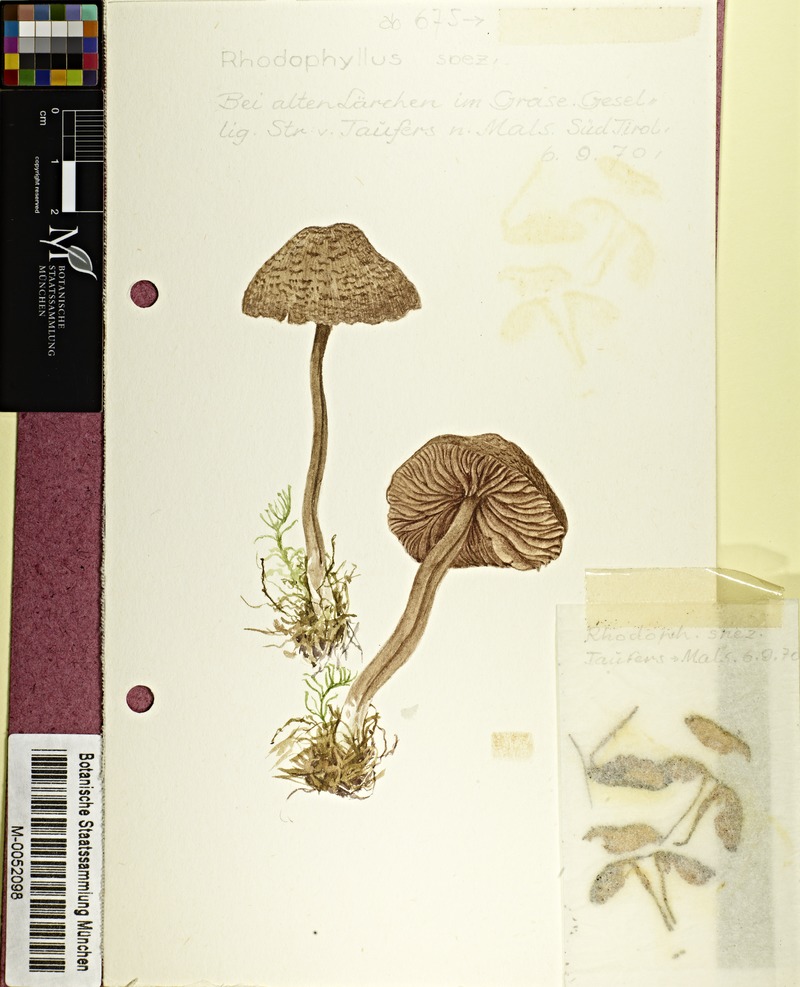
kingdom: Fungi
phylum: Basidiomycota
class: Agaricomycetes
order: Agaricales
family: Entolomataceae
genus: Entoloma
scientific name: Entoloma
